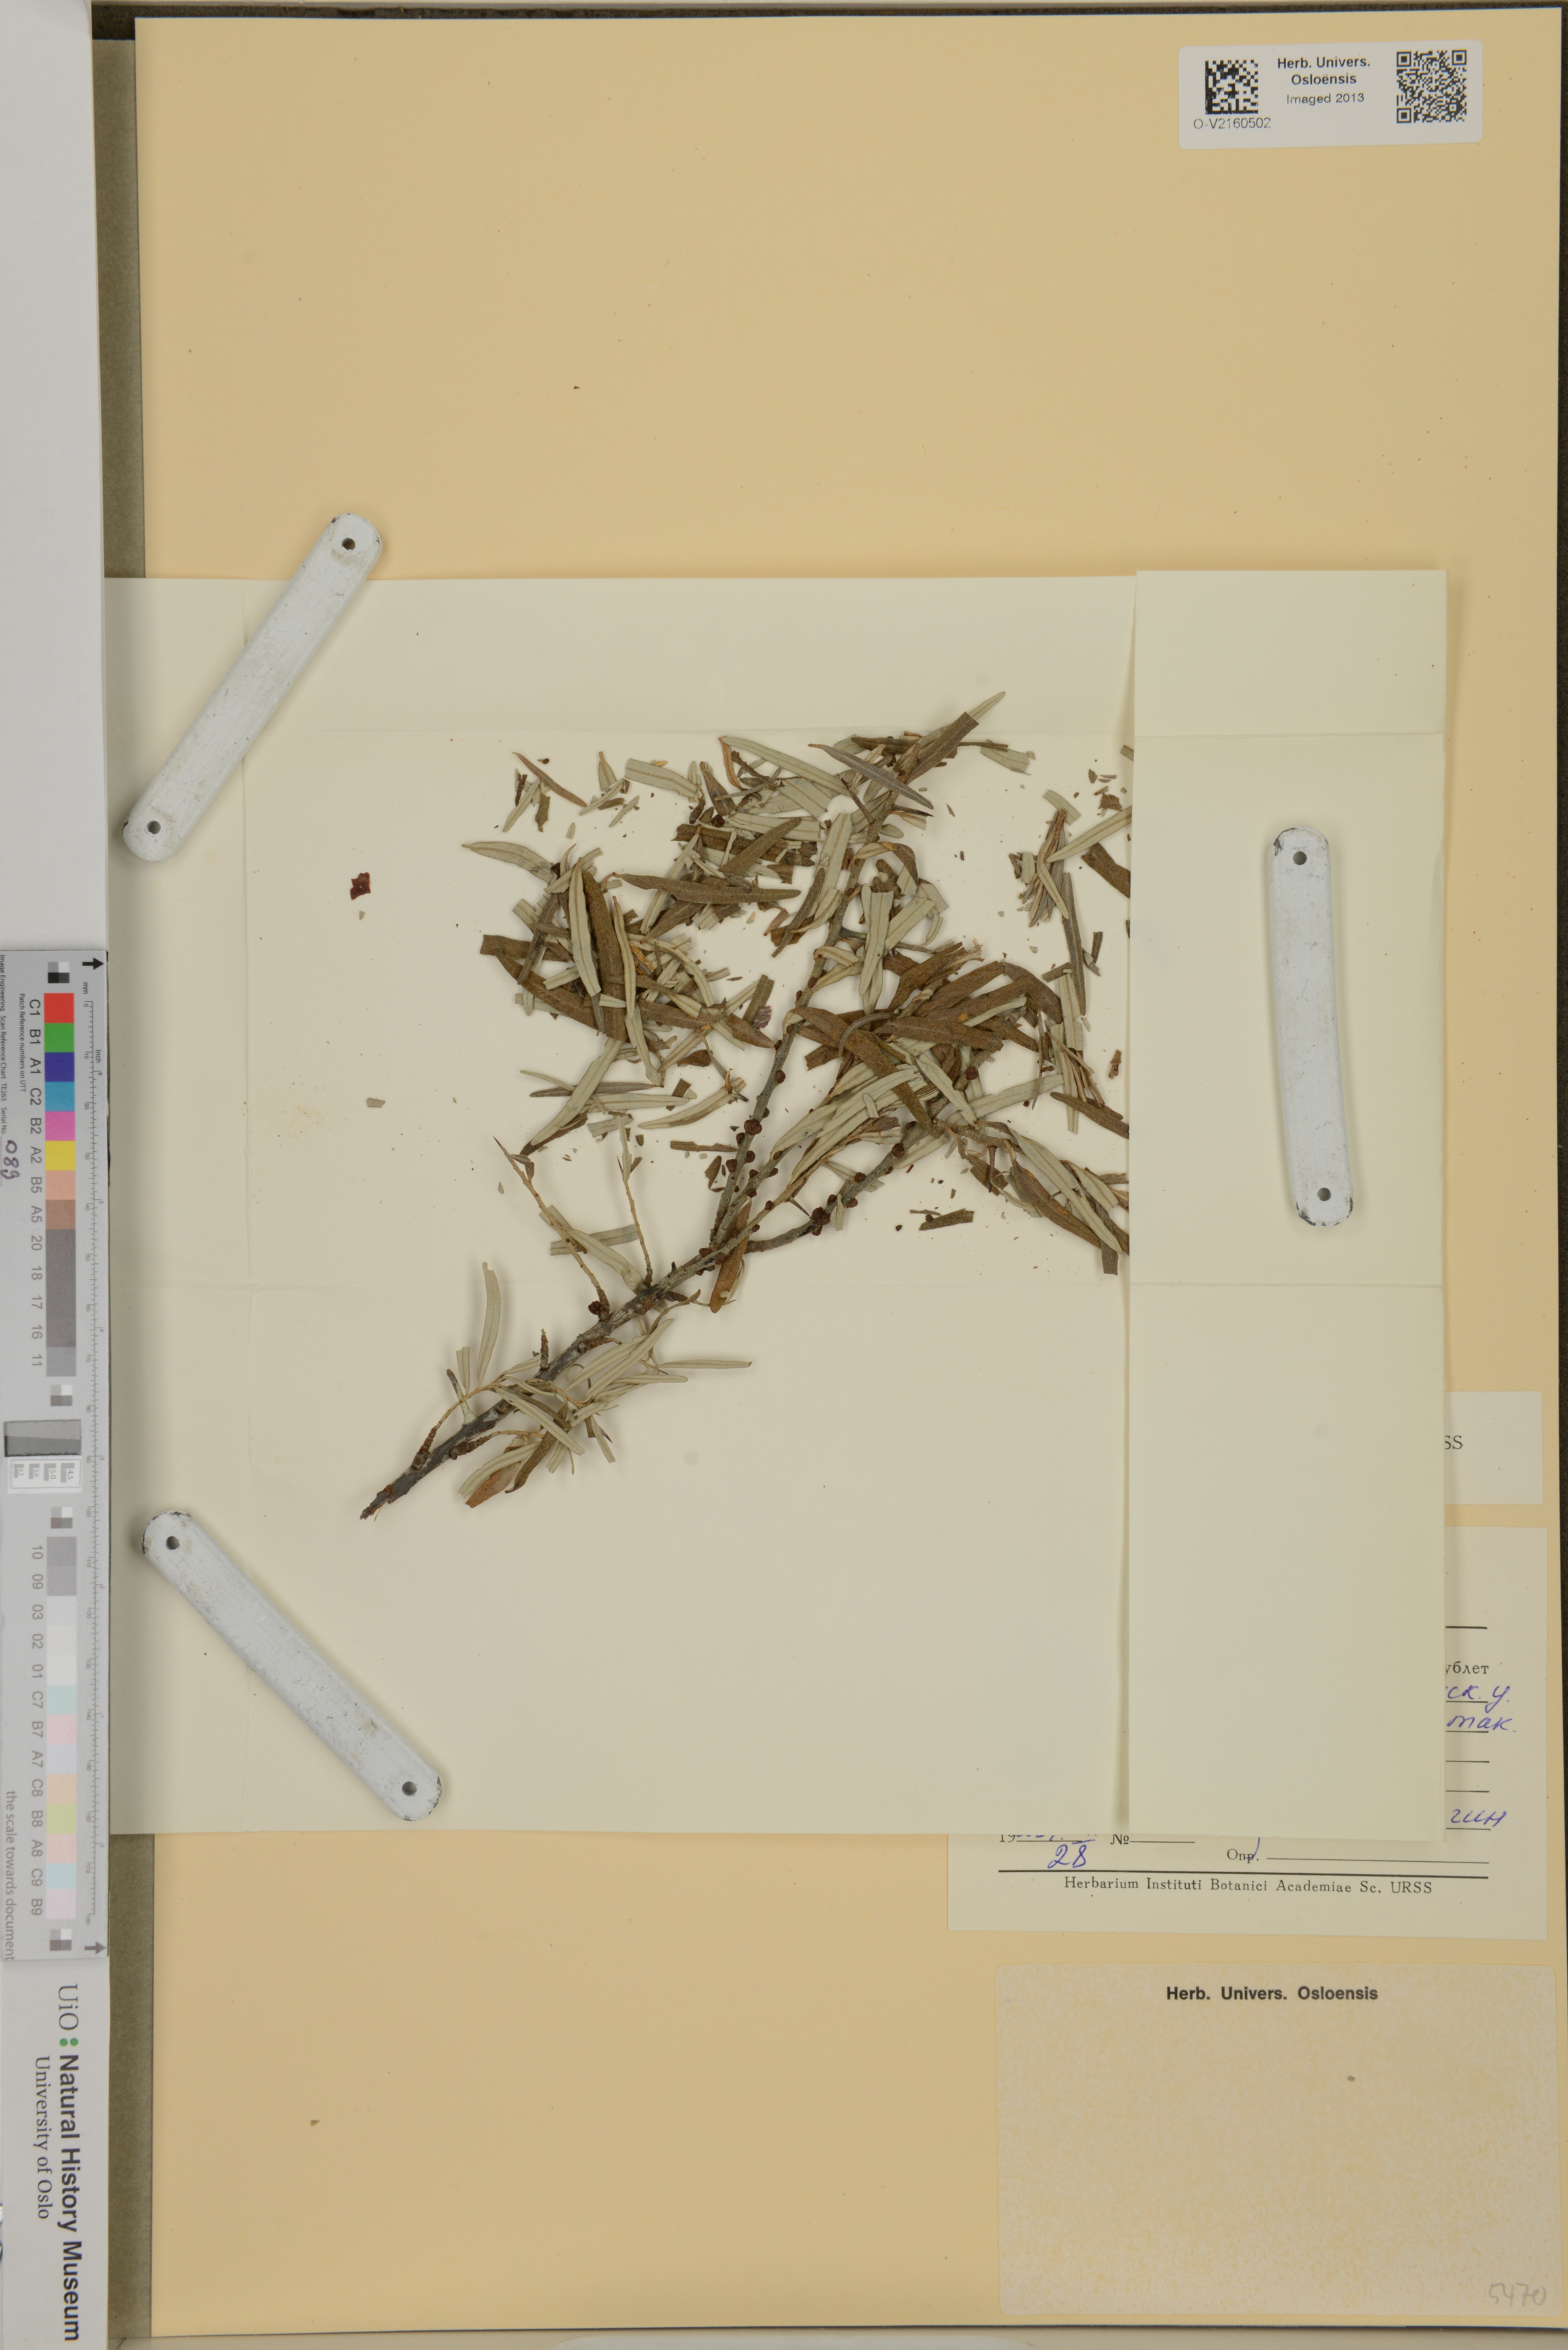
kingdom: Plantae
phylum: Tracheophyta
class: Magnoliopsida
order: Rosales
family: Elaeagnaceae
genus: Hippophae
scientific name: Hippophae
